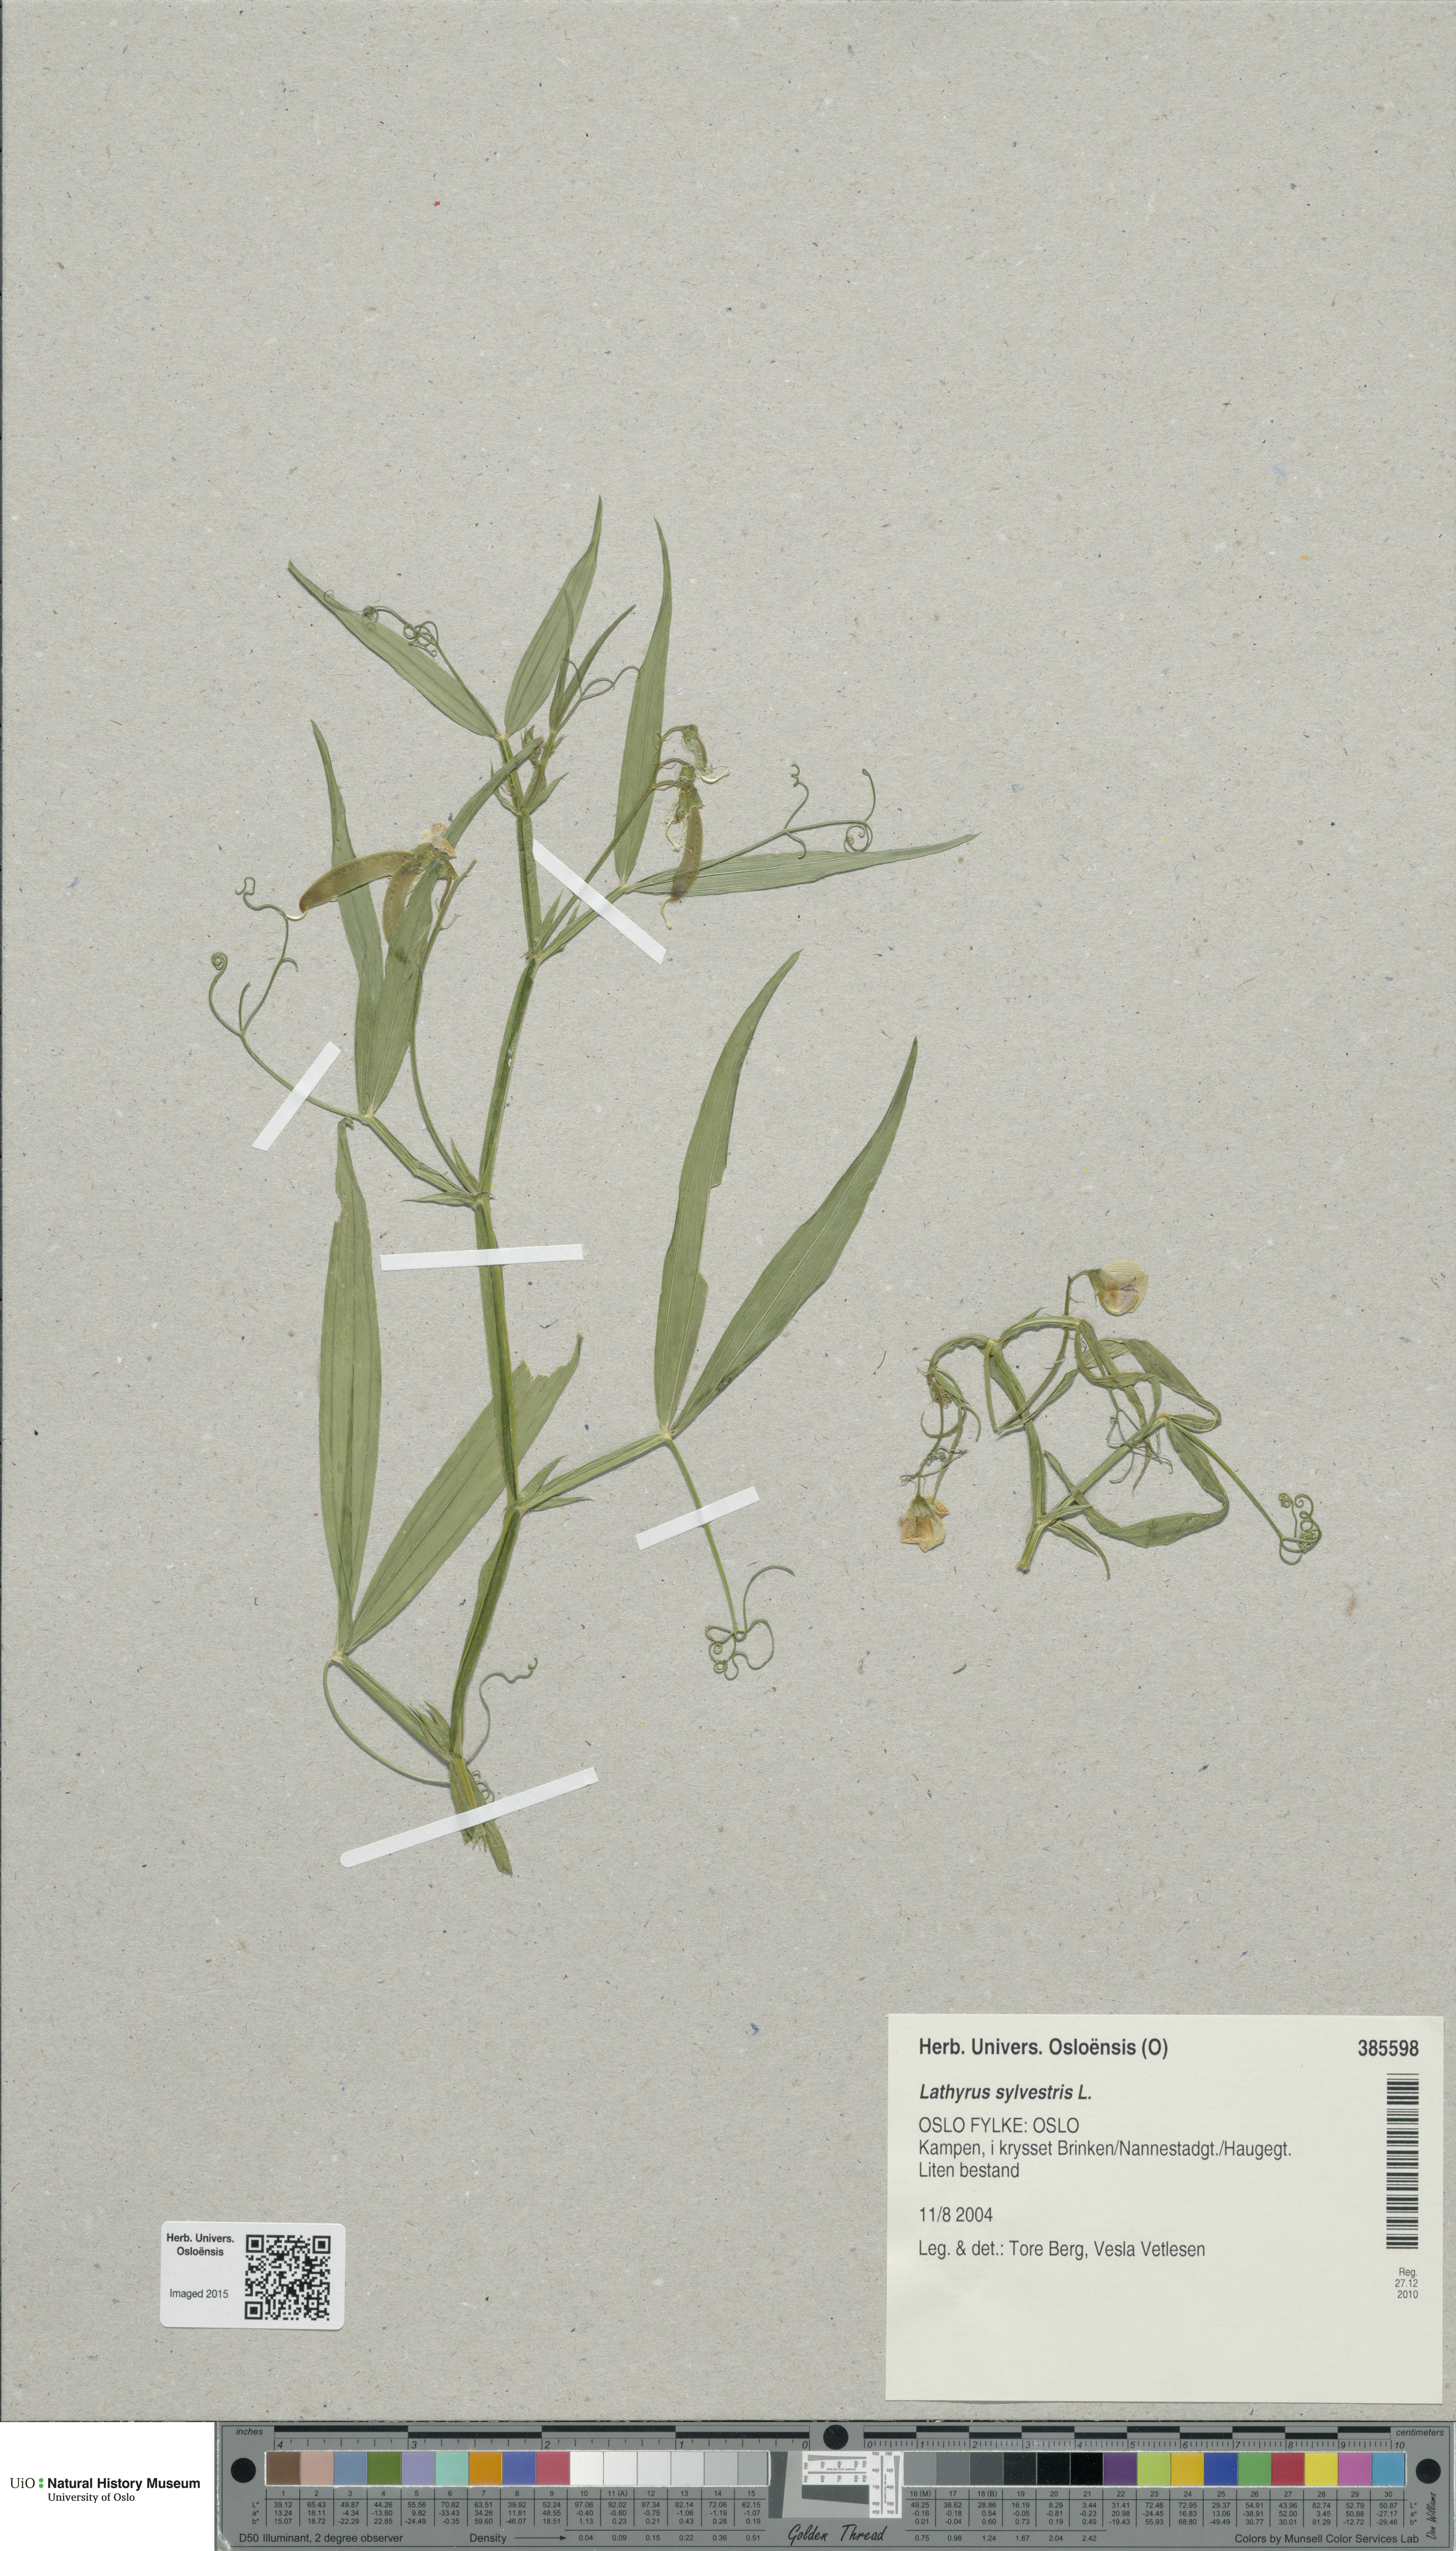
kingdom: Plantae
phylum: Tracheophyta
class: Magnoliopsida
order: Fabales
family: Fabaceae
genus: Lathyrus
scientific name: Lathyrus sylvestris
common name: Flat pea
